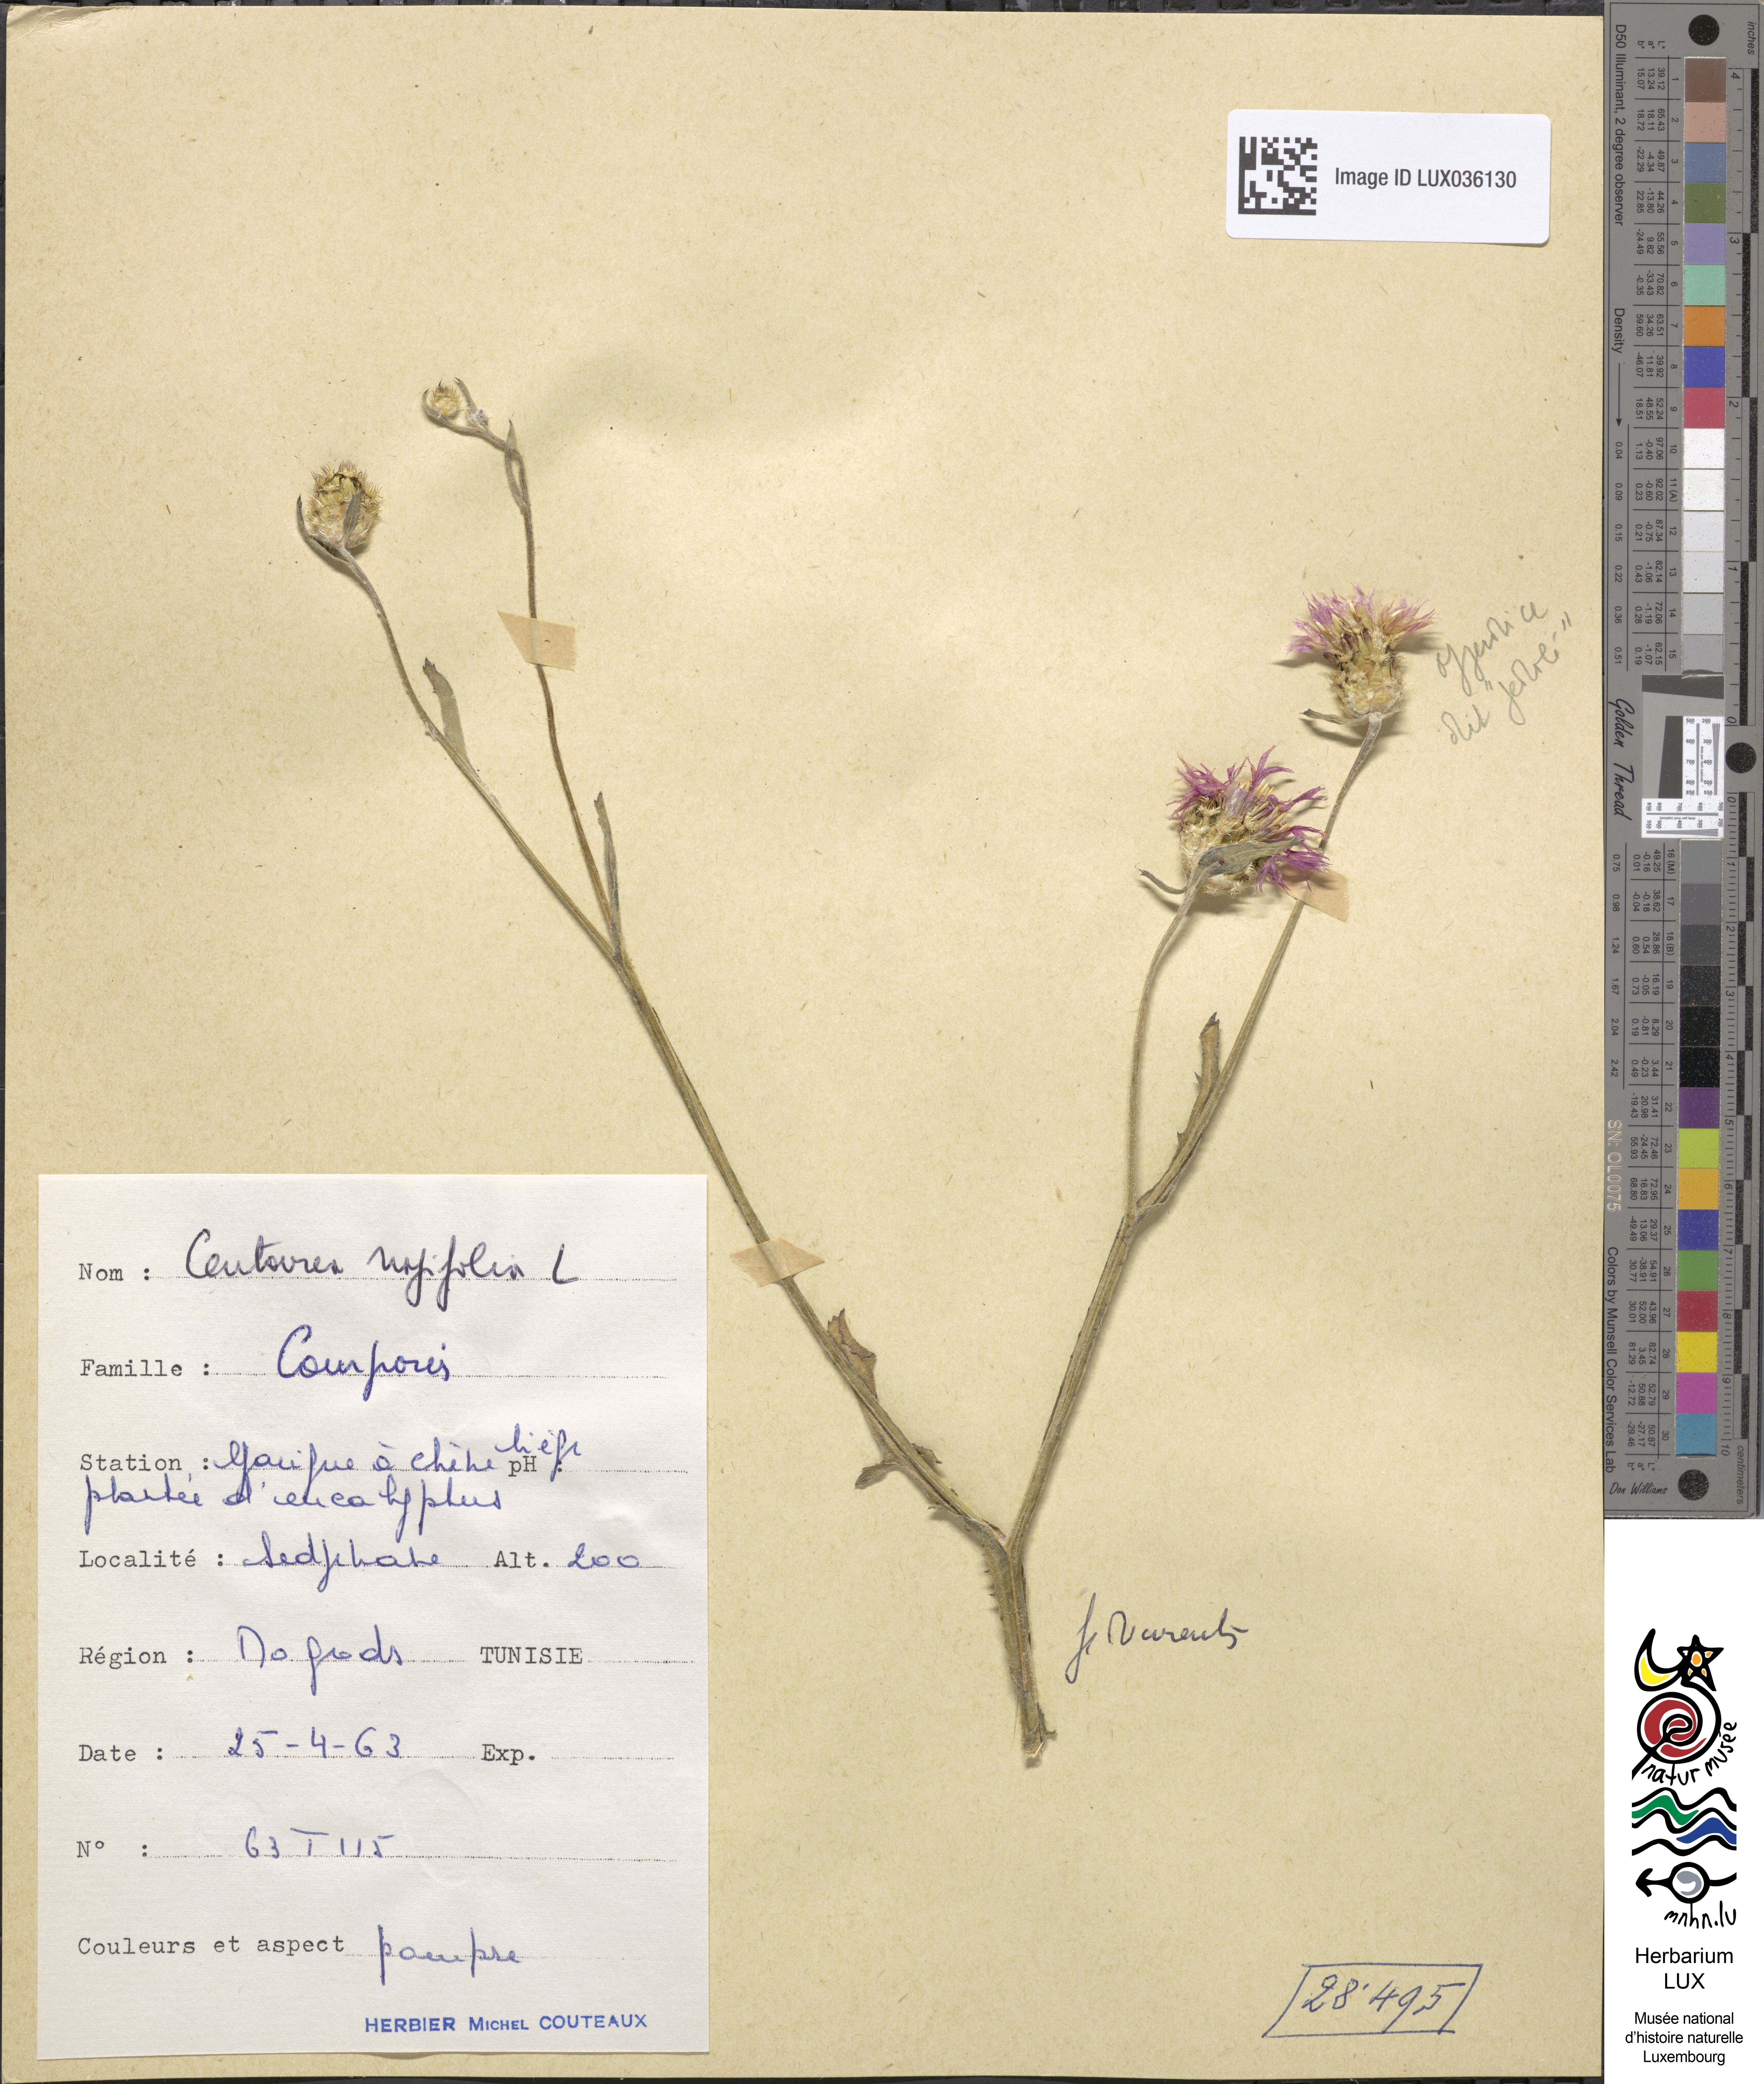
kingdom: Plantae
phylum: Tracheophyta
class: Magnoliopsida
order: Asterales
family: Asteraceae
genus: Centaurea
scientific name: Centaurea napifolia
